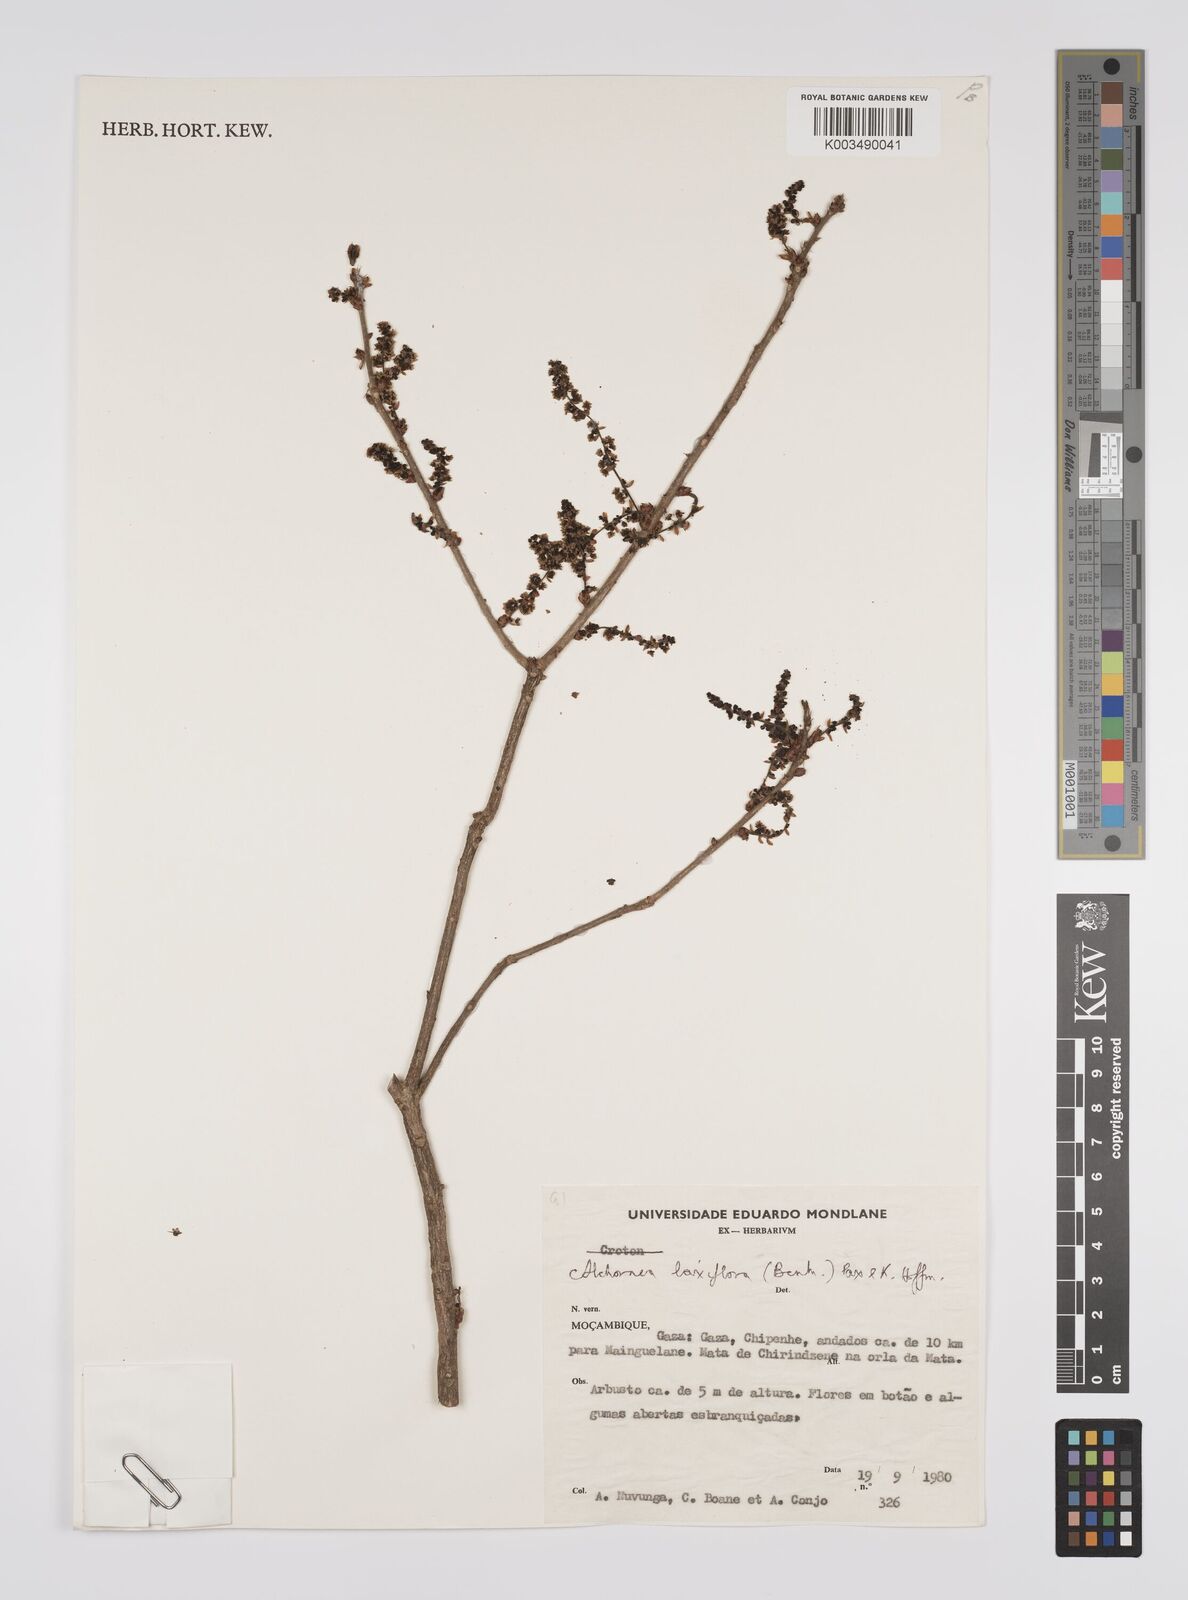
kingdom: Plantae
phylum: Tracheophyta
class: Magnoliopsida
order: Malpighiales
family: Euphorbiaceae
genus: Alchornea
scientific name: Alchornea laxiflora
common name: Lowveld bead-string
